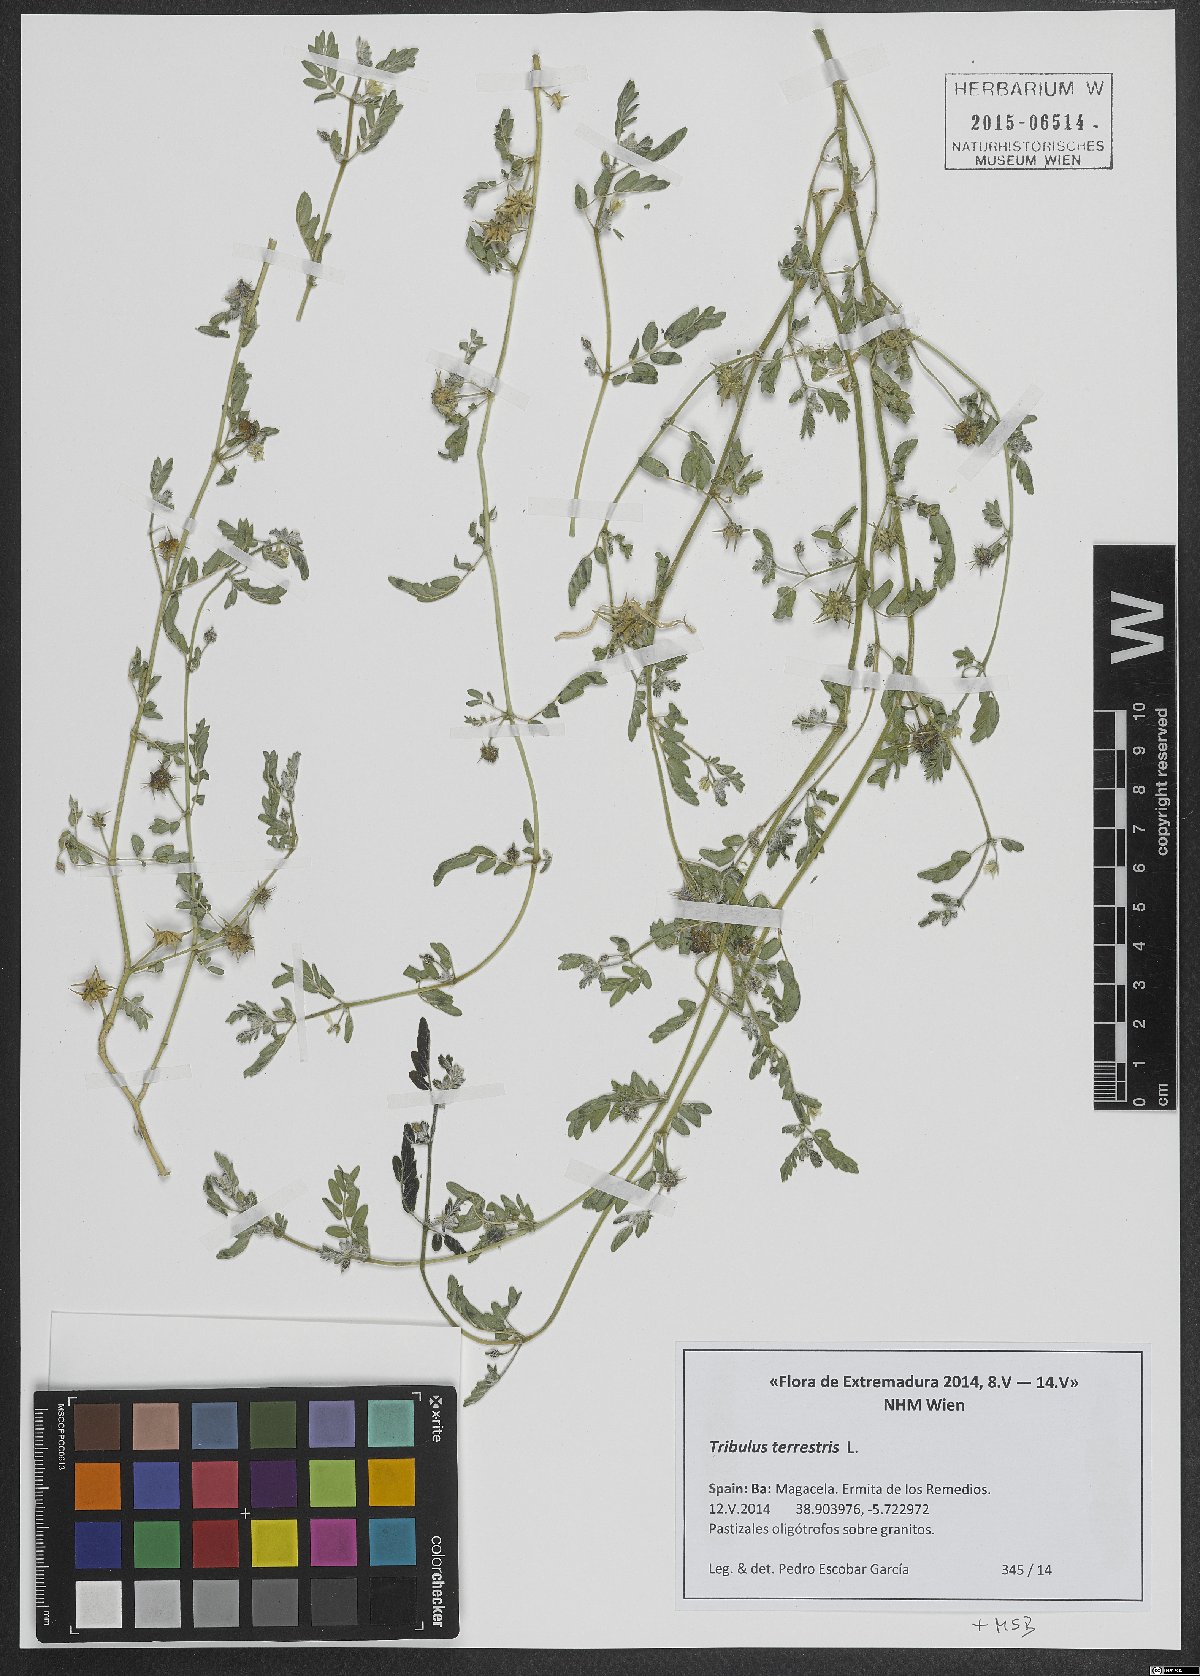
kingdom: Plantae
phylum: Tracheophyta
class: Magnoliopsida
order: Zygophyllales
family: Zygophyllaceae
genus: Tribulus
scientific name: Tribulus terrestris
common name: Puncturevine
